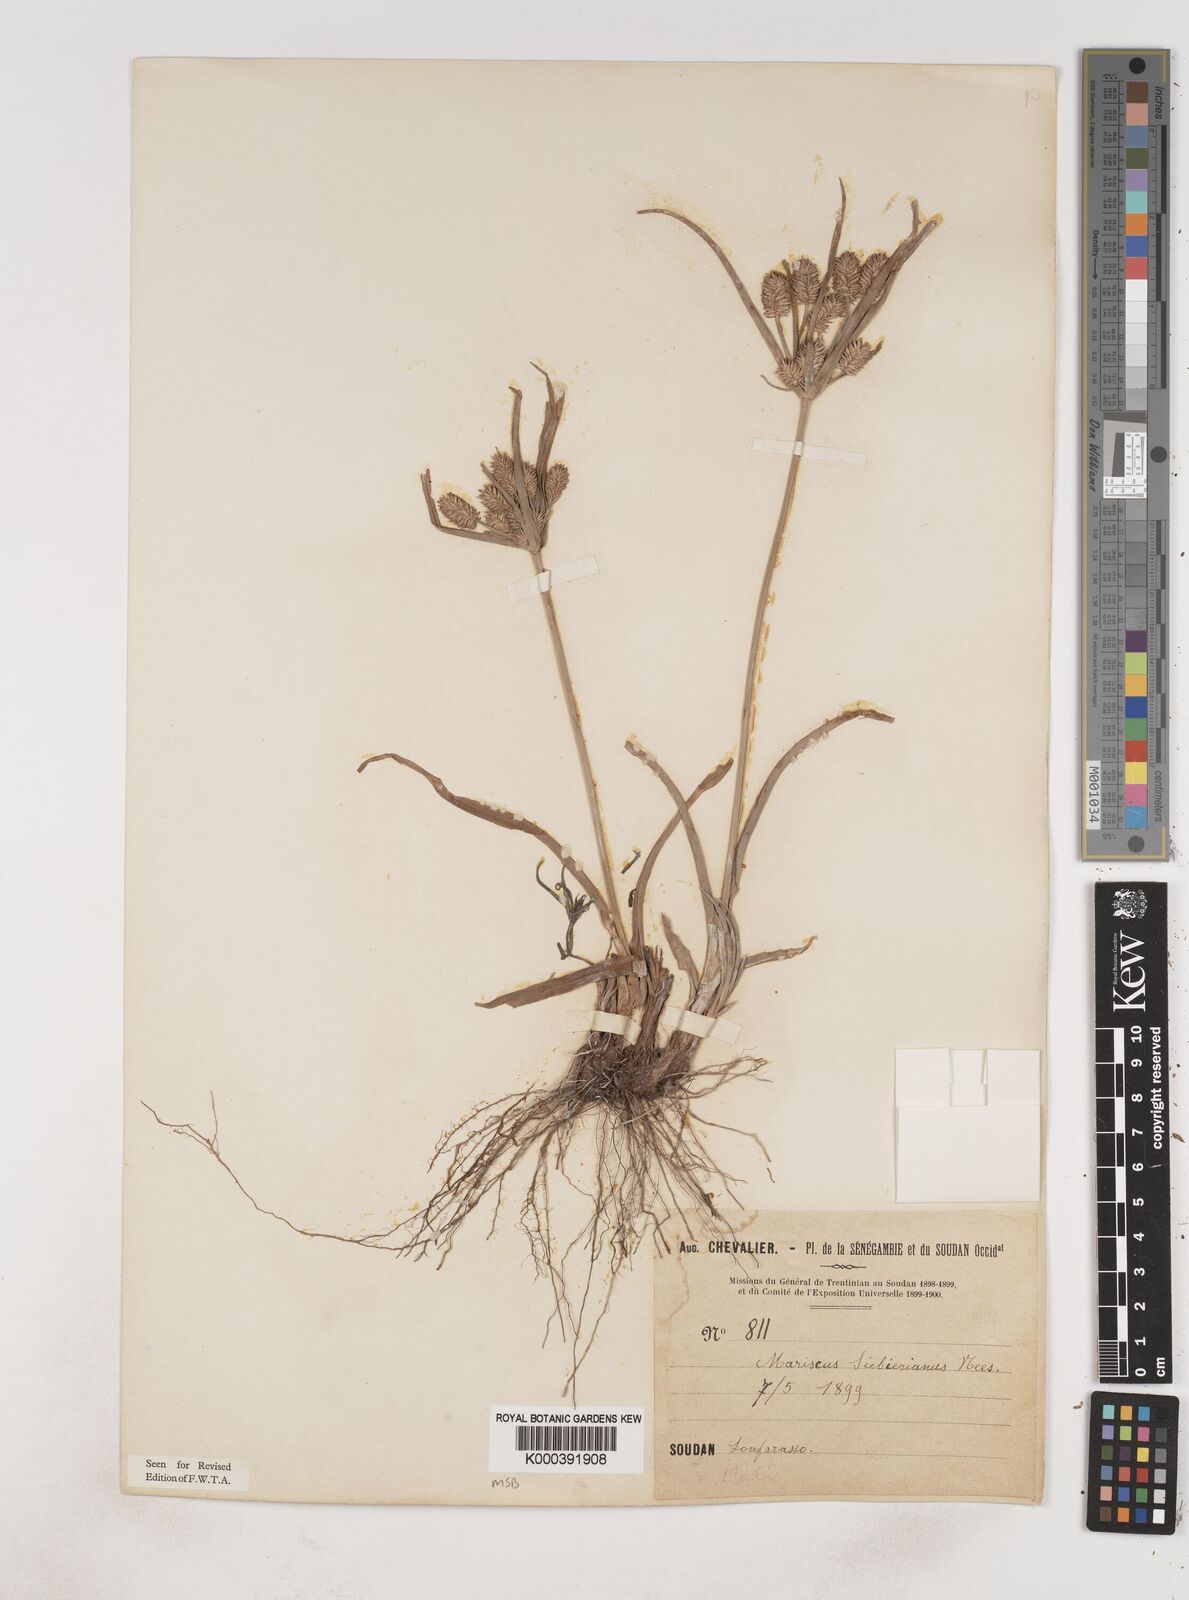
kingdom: Plantae
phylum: Tracheophyta
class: Liliopsida
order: Poales
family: Cyperaceae
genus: Cyperus
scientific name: Cyperus cyperoides
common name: Pacific island flat sedge
